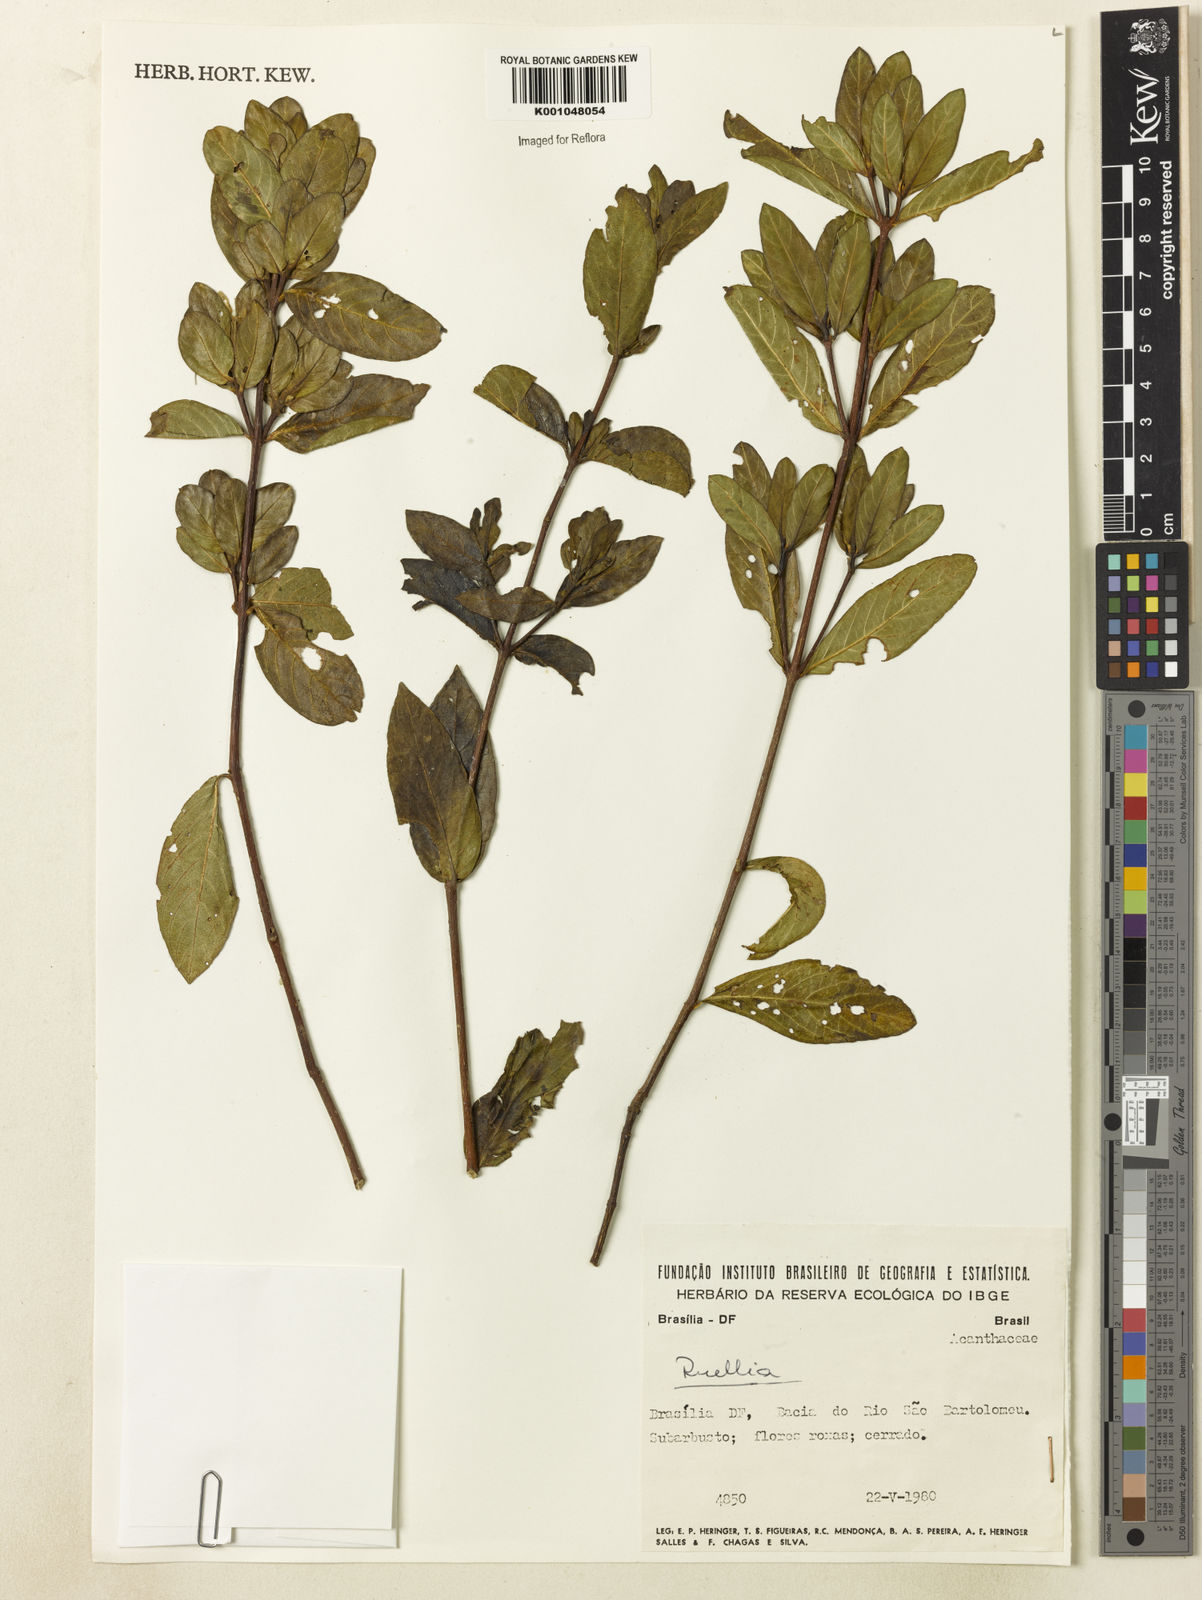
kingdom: Plantae
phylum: Tracheophyta
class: Magnoliopsida
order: Lamiales
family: Acanthaceae
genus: Ruellia
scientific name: Ruellia densa
